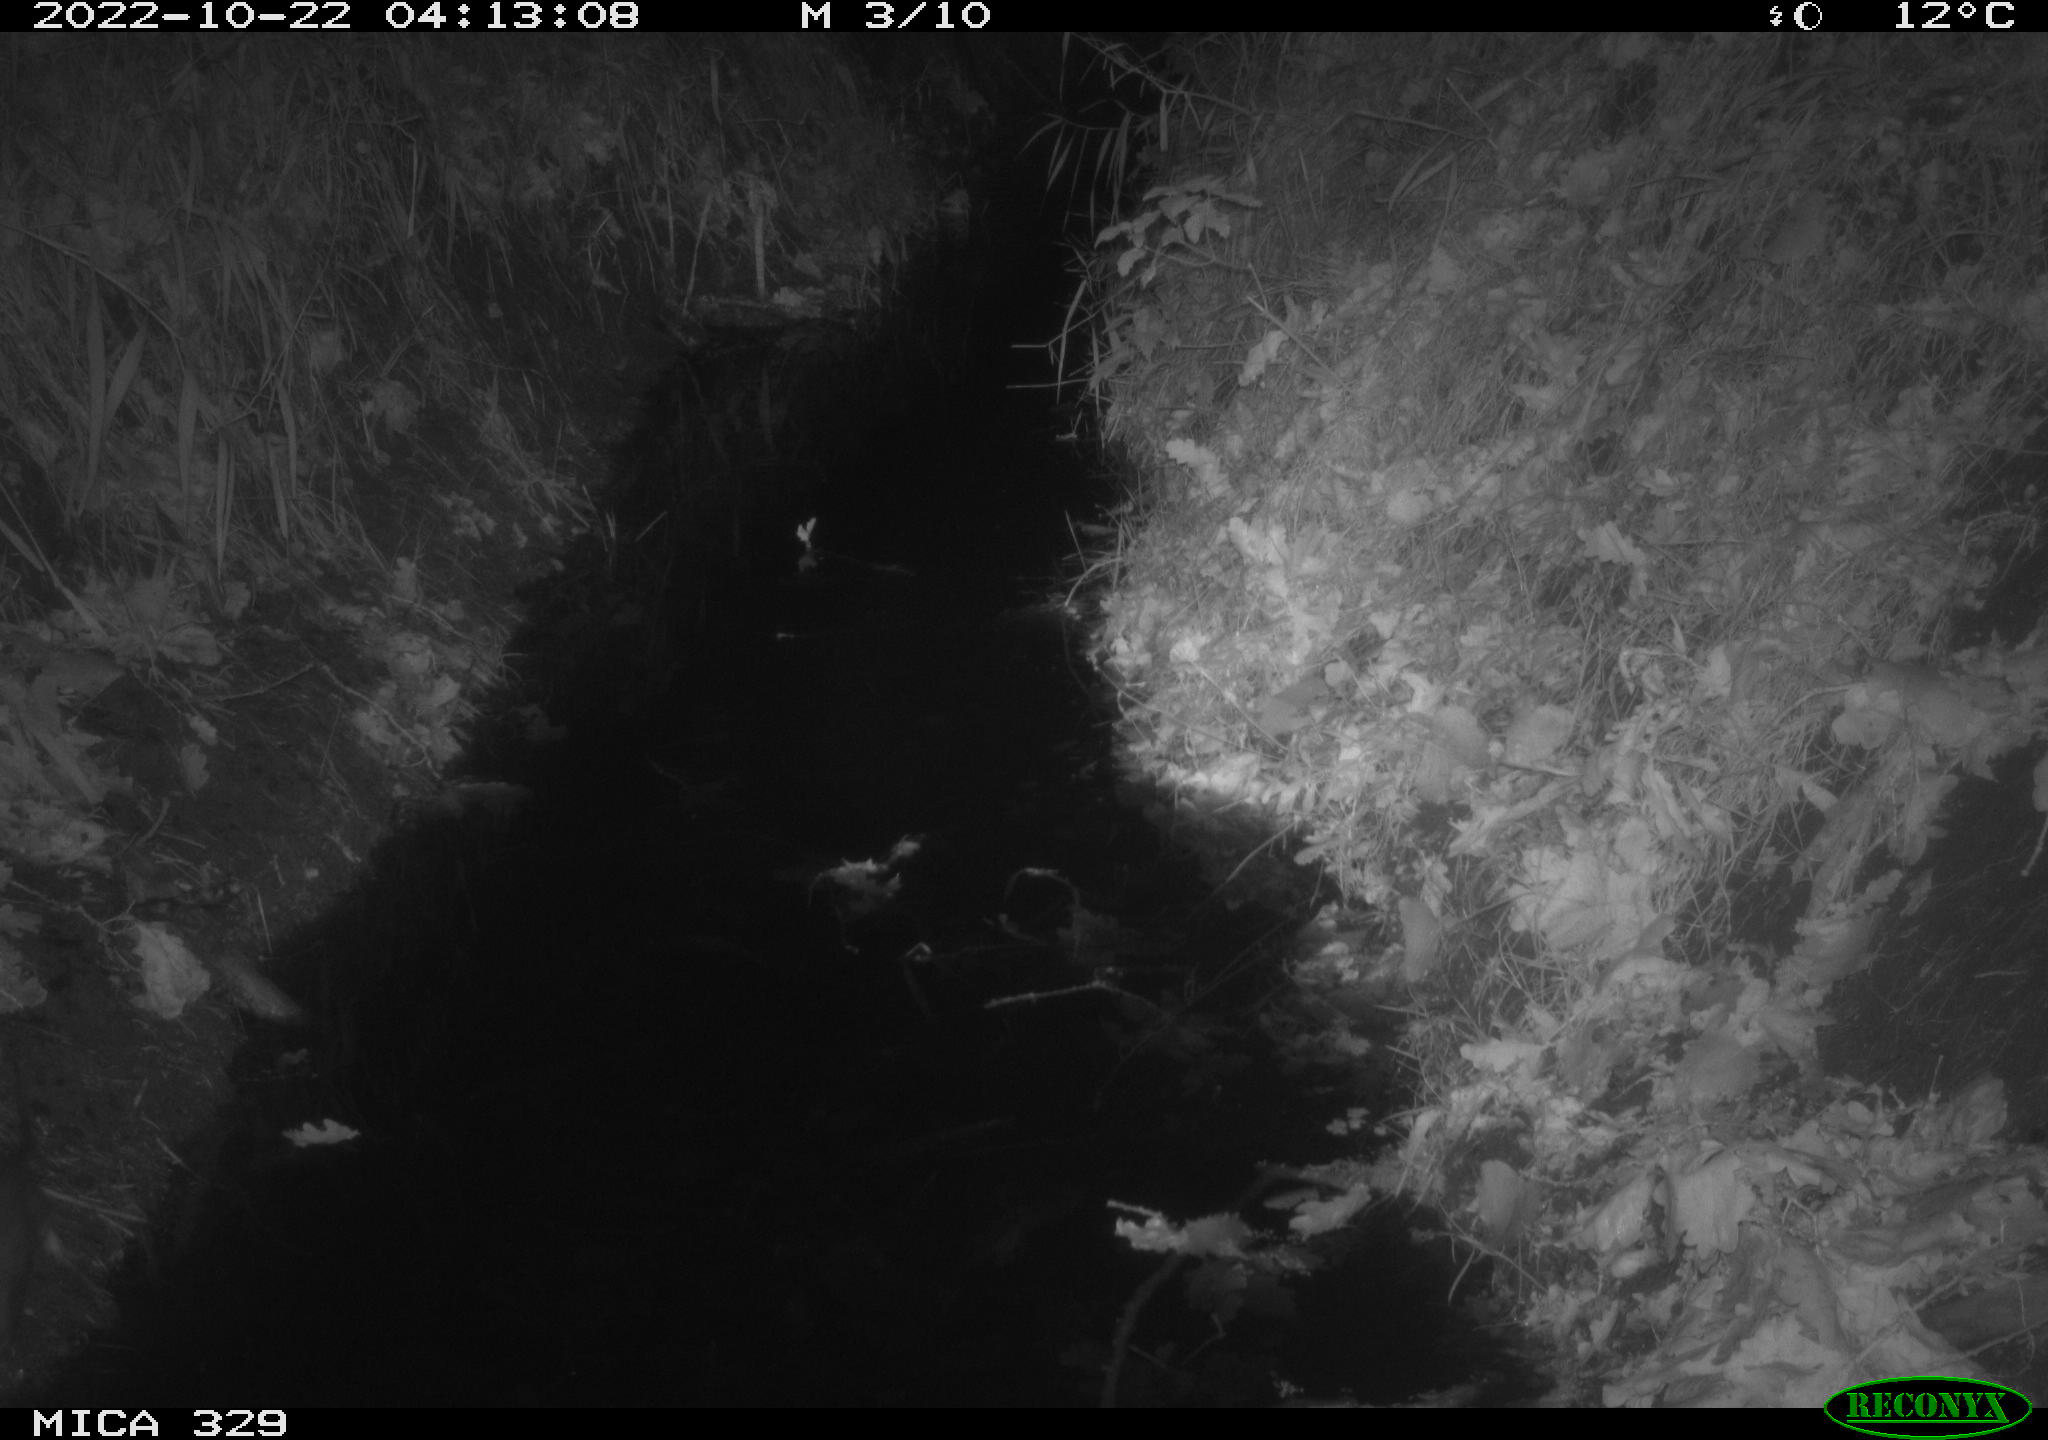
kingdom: Animalia
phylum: Chordata
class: Mammalia
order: Rodentia
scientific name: Rodentia
